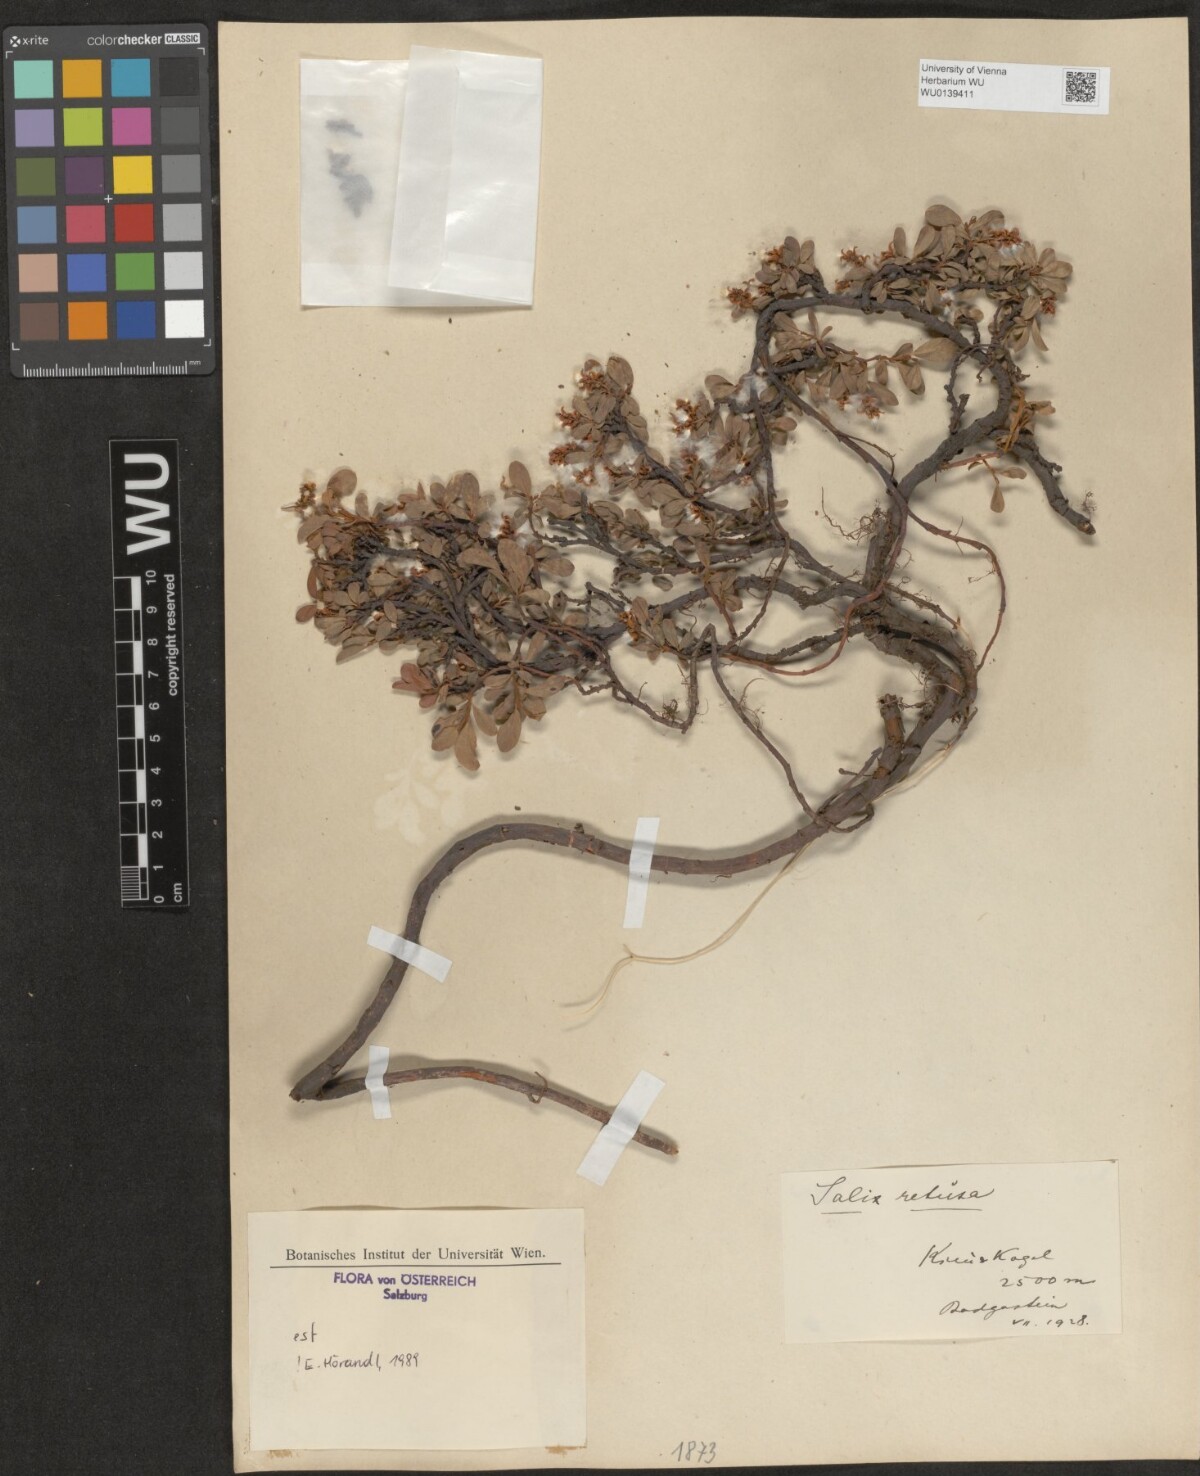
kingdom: Plantae
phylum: Tracheophyta
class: Magnoliopsida
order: Malpighiales
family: Salicaceae
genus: Salix
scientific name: Salix retusa
